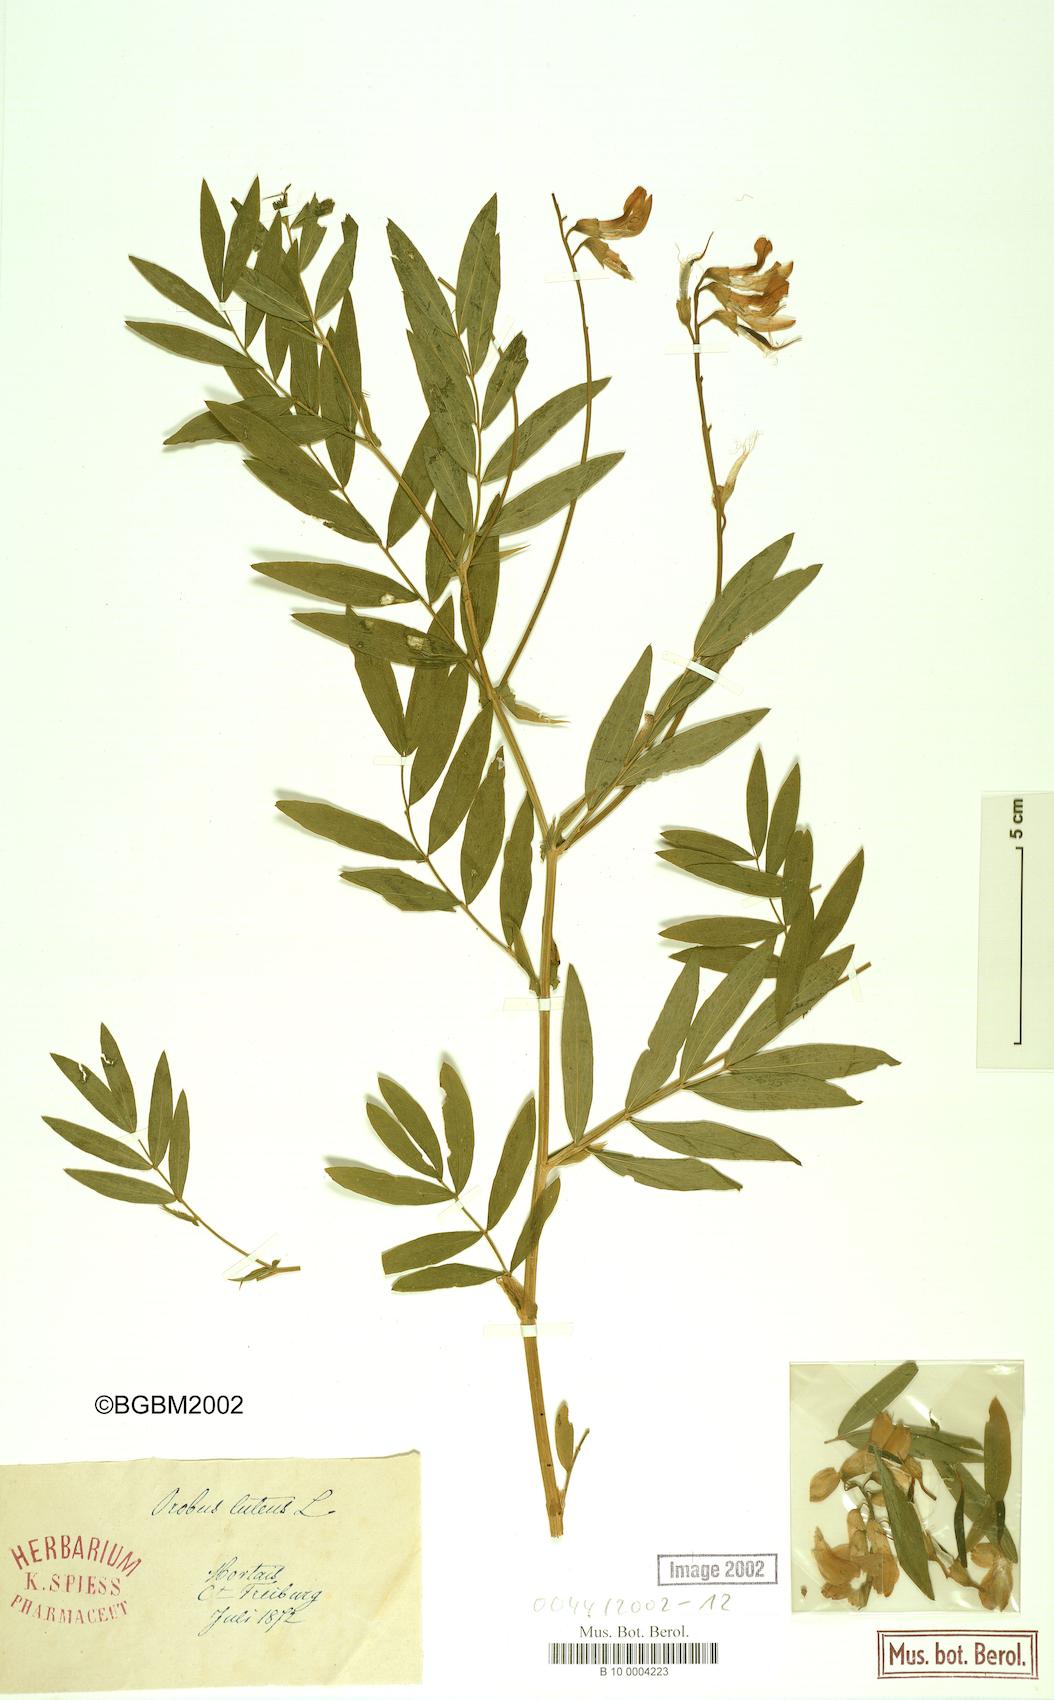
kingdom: Plantae
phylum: Tracheophyta
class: Magnoliopsida
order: Fabales
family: Fabaceae
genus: Lathyrus
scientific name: Lathyrus gmelinii
